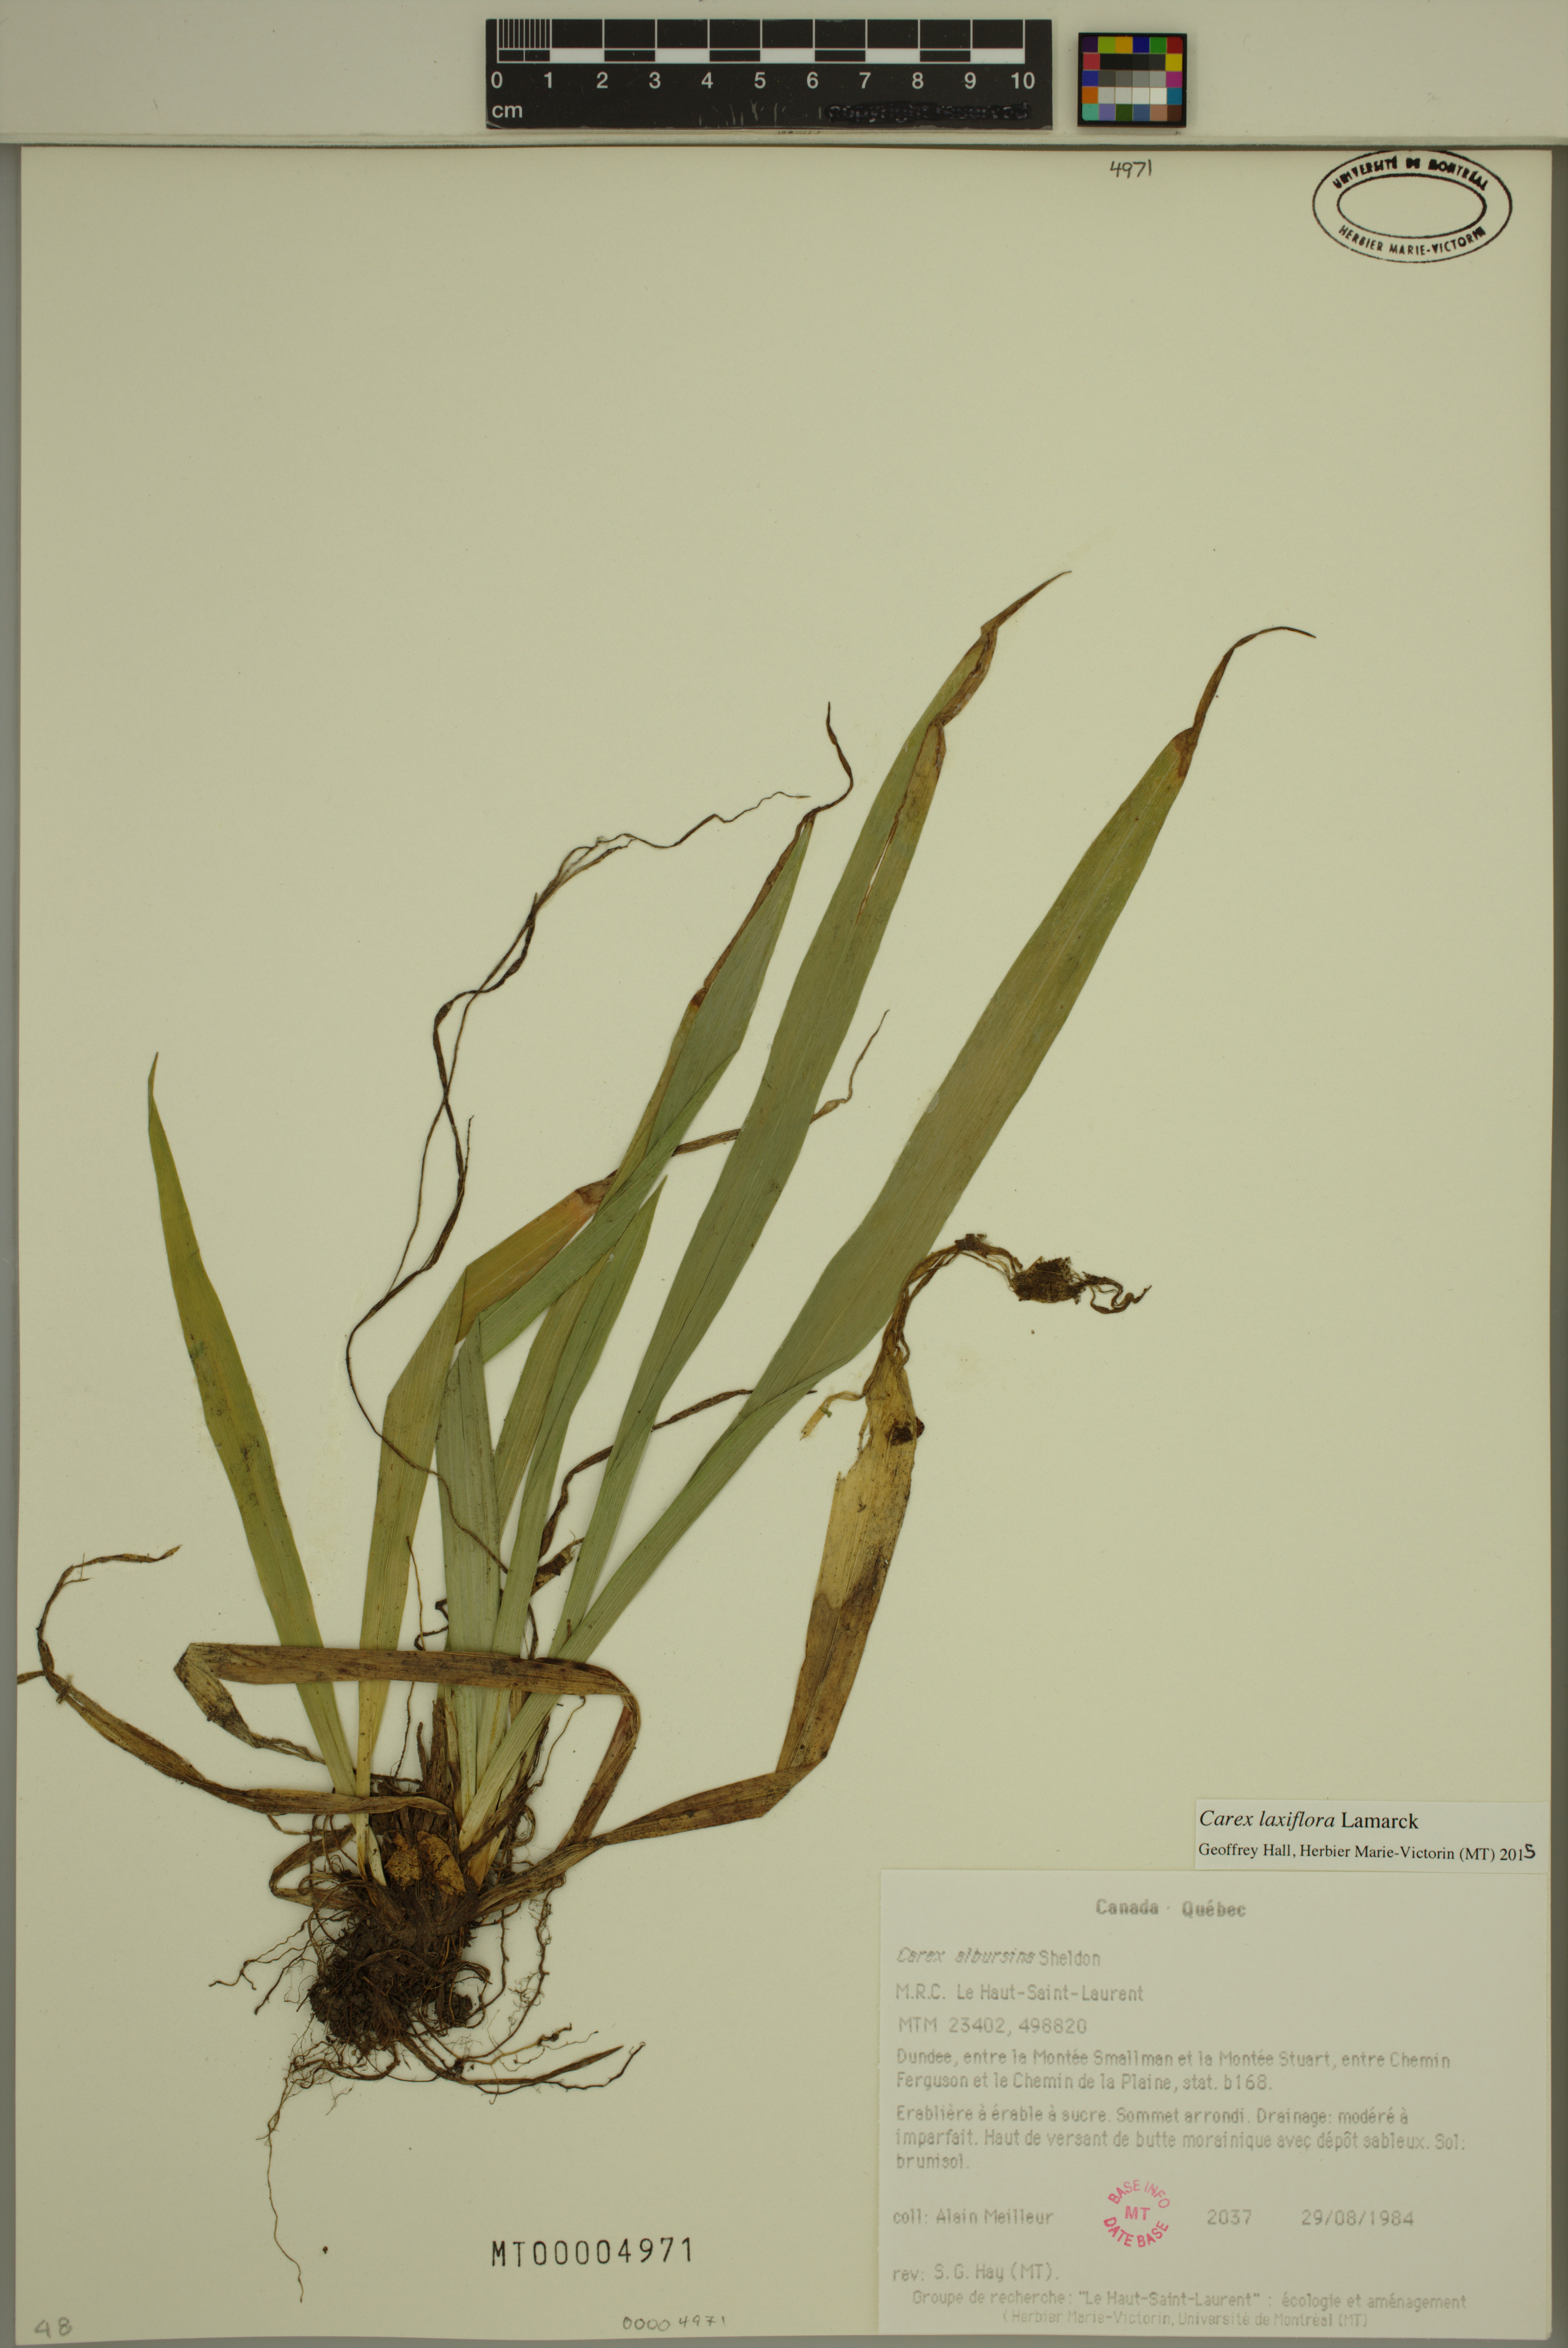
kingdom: Plantae
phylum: Tracheophyta
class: Liliopsida
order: Poales
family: Cyperaceae
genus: Carex
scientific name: Carex laxiflora
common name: Beech wood sedge
